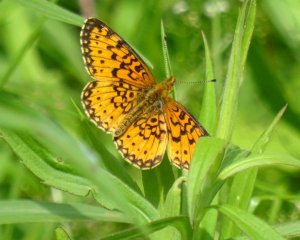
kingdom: Animalia
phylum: Arthropoda
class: Insecta
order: Lepidoptera
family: Nymphalidae
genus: Boloria
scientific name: Boloria selene
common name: Silver-bordered Fritillary
